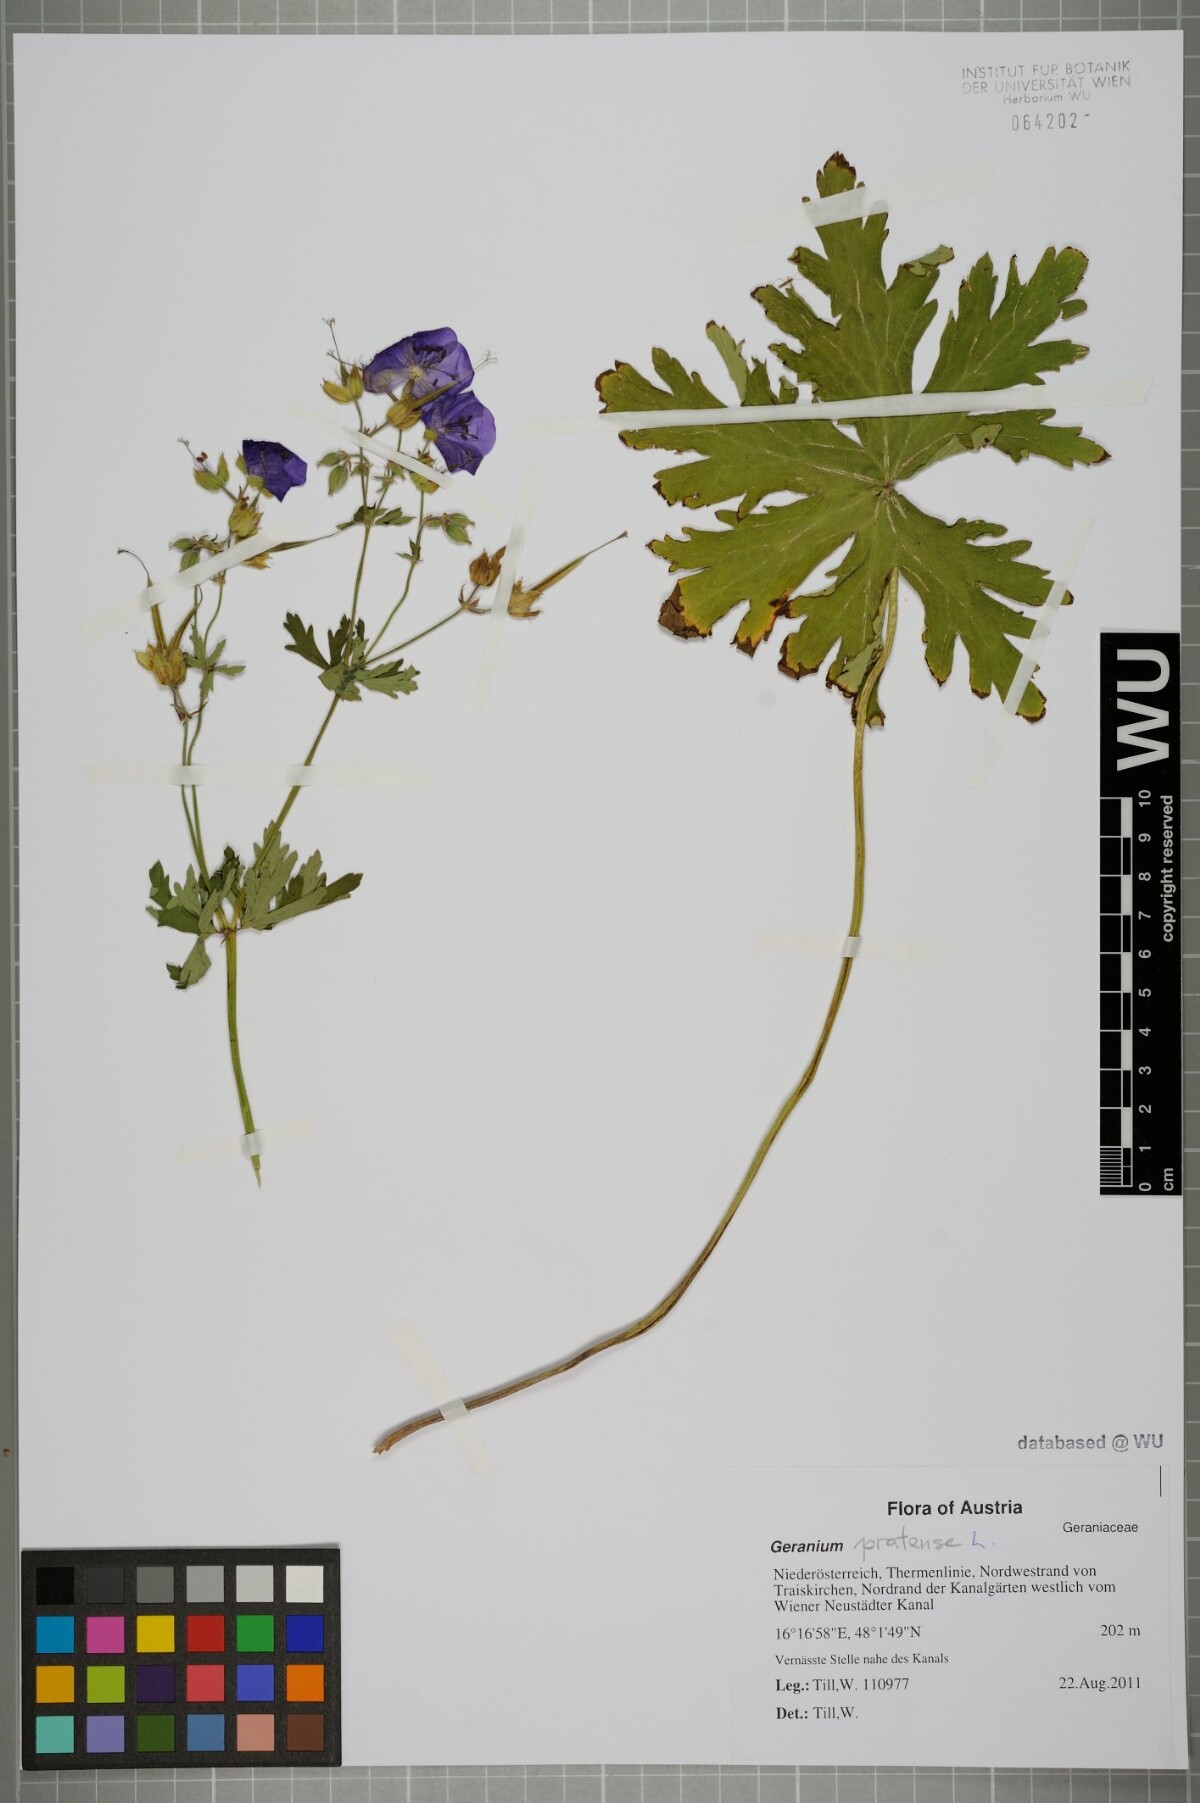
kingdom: Plantae
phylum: Tracheophyta
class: Magnoliopsida
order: Geraniales
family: Geraniaceae
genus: Geranium
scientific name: Geranium pratense
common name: Meadow crane's-bill
